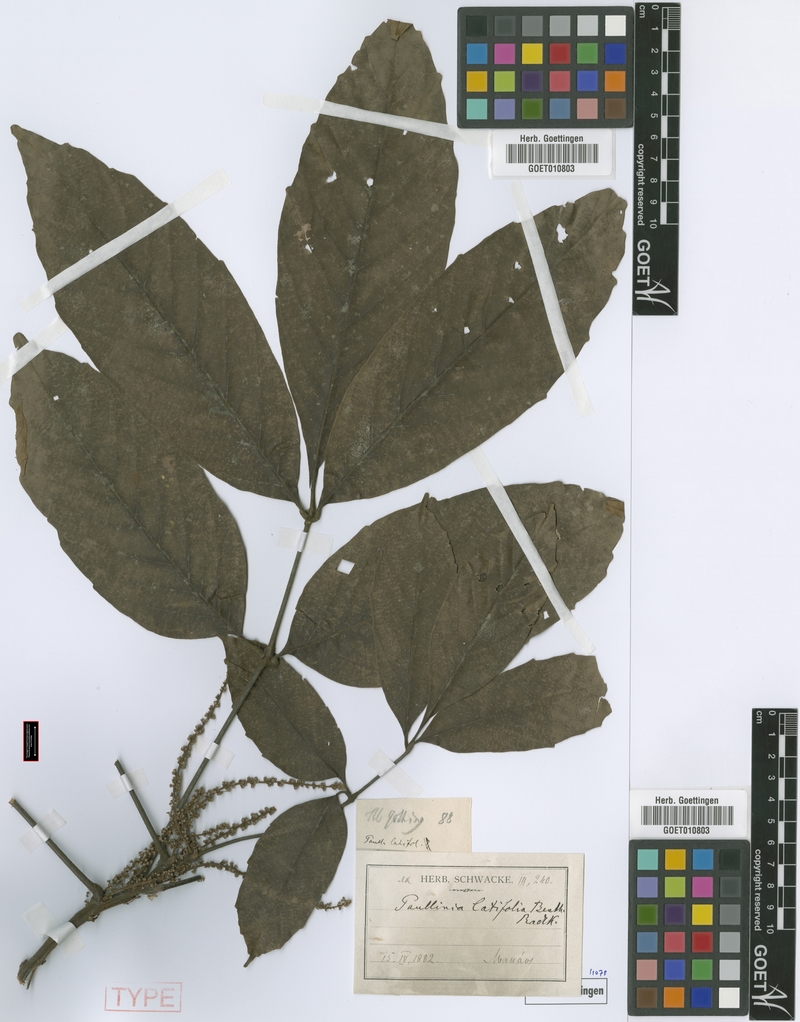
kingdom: Plantae
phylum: Tracheophyta
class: Magnoliopsida
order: Sapindales
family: Sapindaceae
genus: Paullinia
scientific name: Paullinia latifolia
